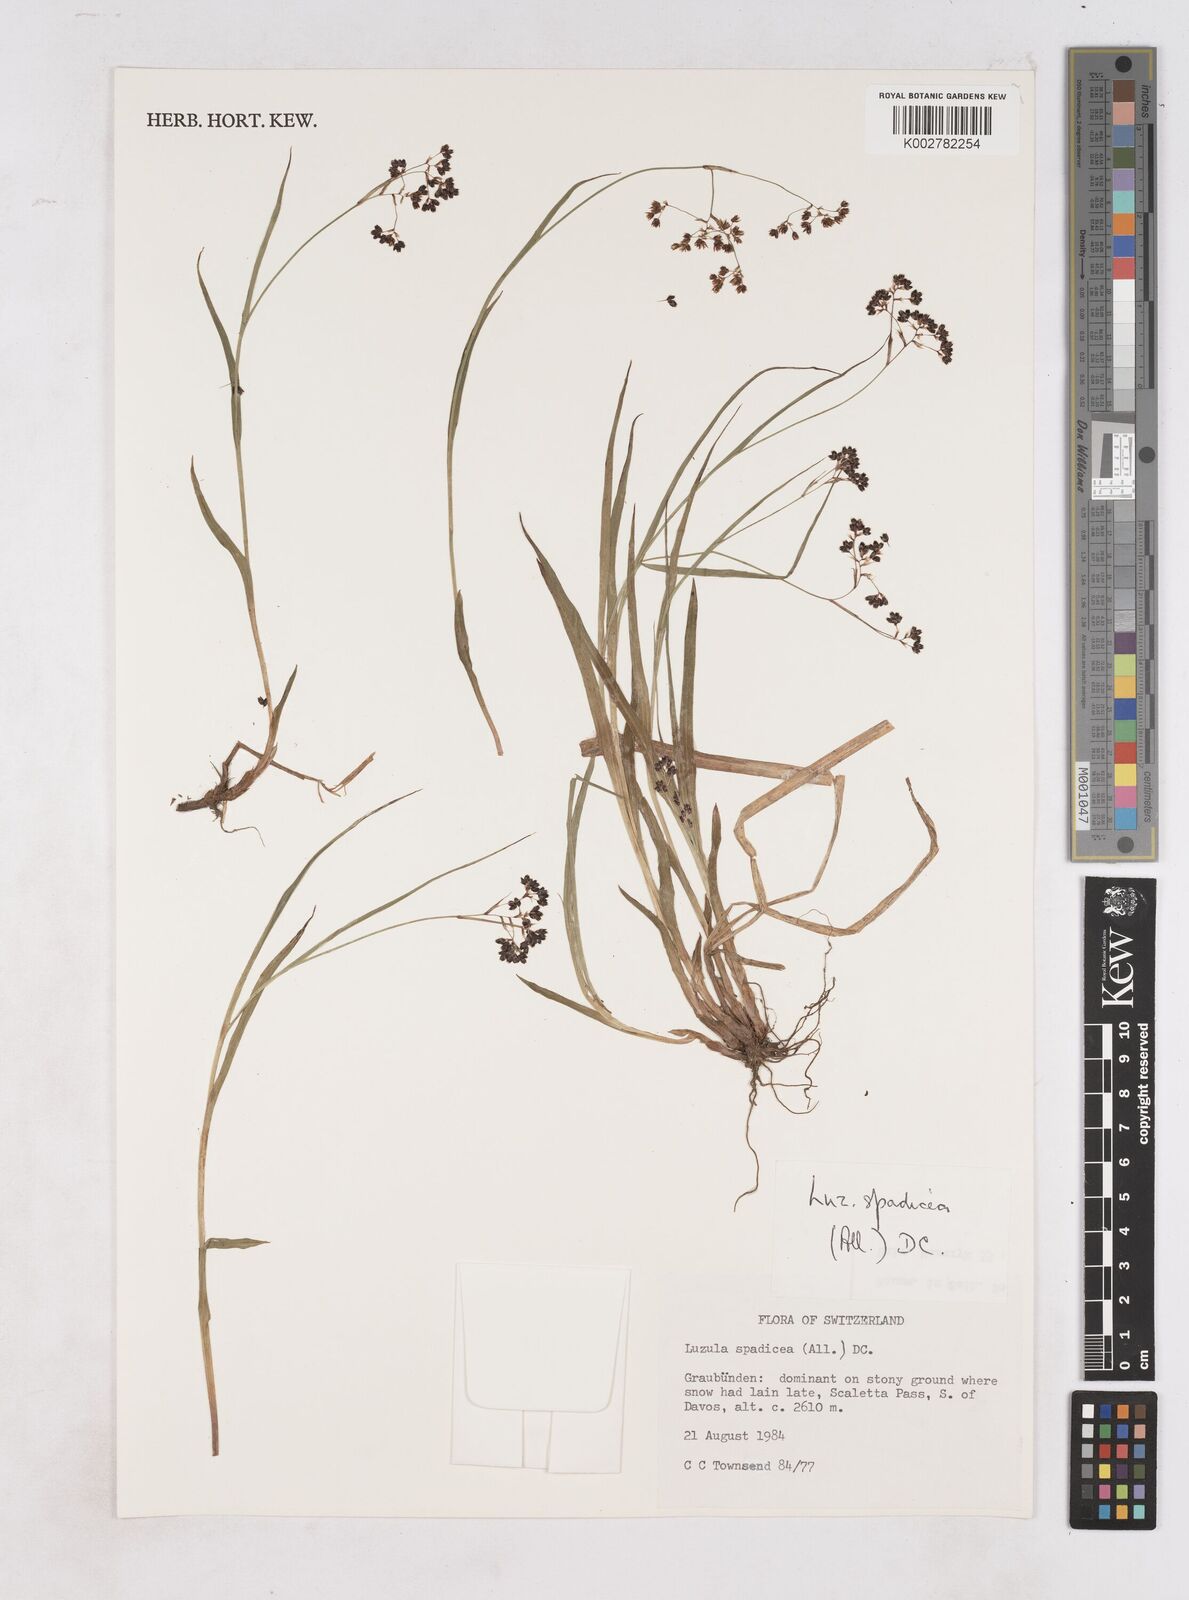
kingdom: Plantae
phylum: Tracheophyta
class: Liliopsida
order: Poales
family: Juncaceae
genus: Luzula
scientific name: Luzula alpinopilosa
